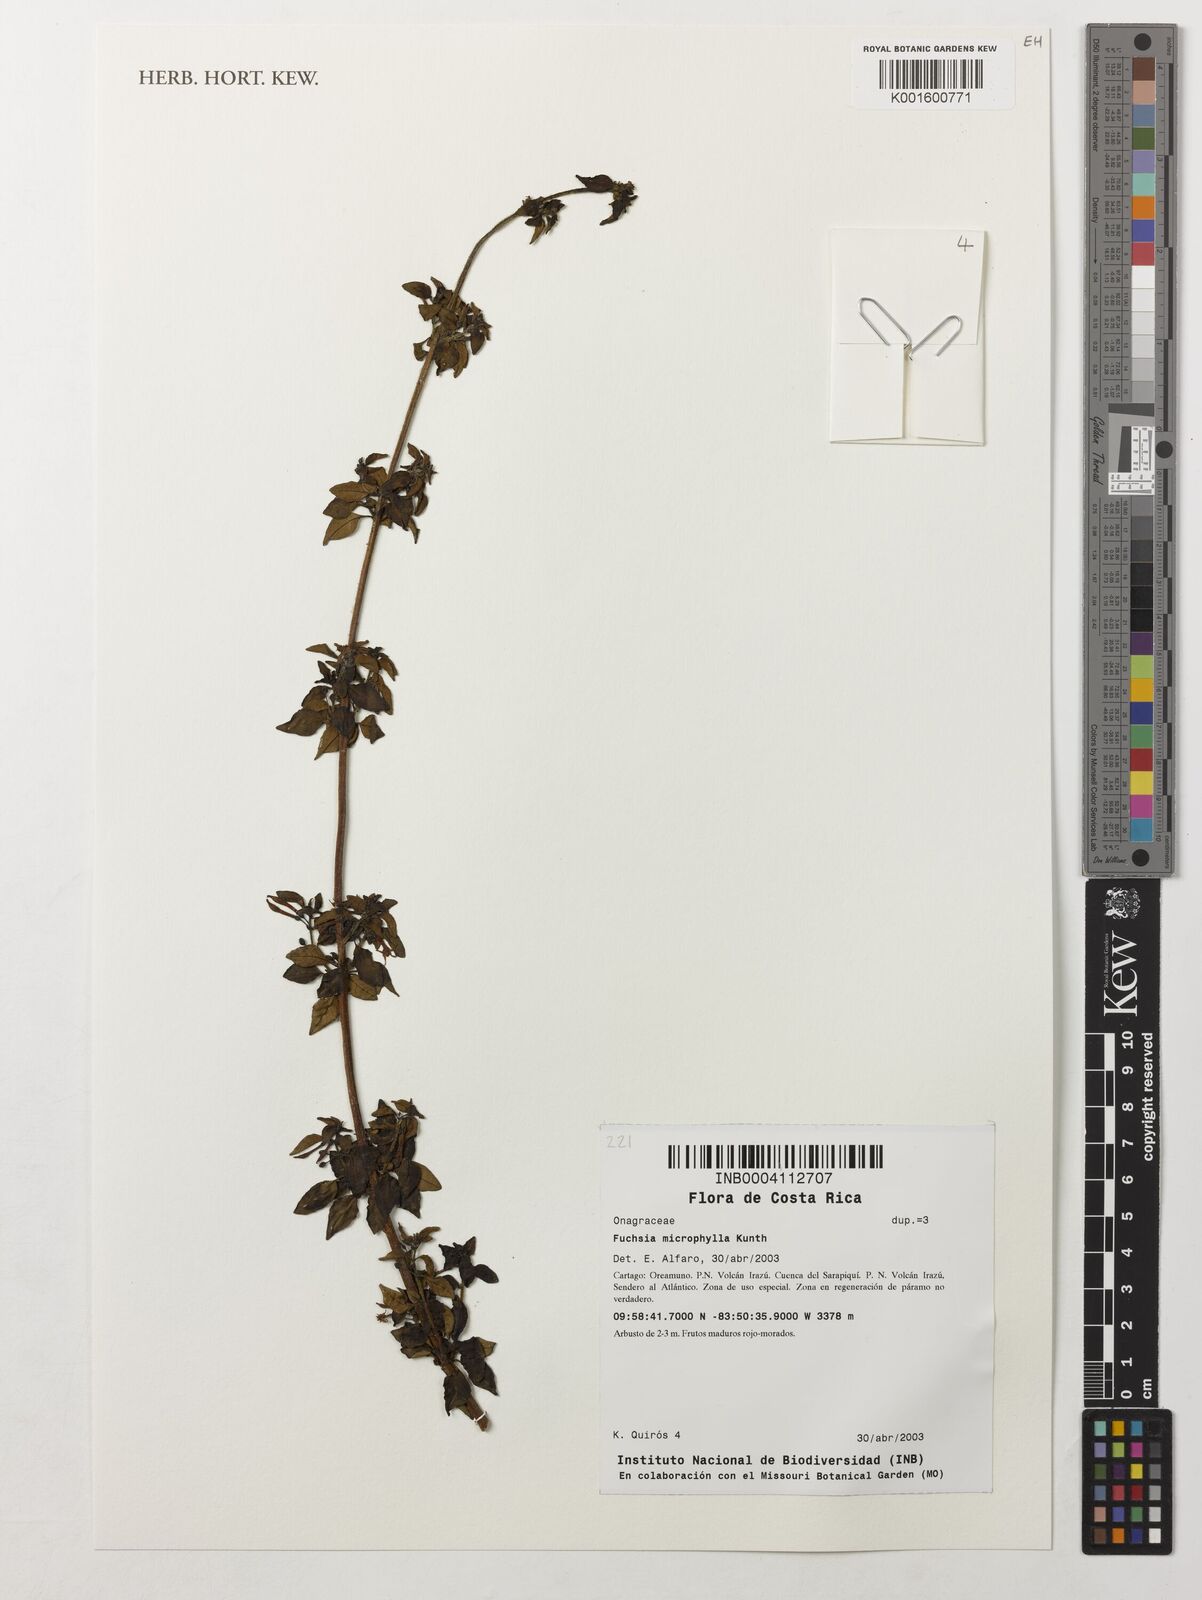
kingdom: Plantae
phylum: Tracheophyta
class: Magnoliopsida
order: Myrtales
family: Onagraceae
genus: Fuchsia
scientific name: Fuchsia microphylla
